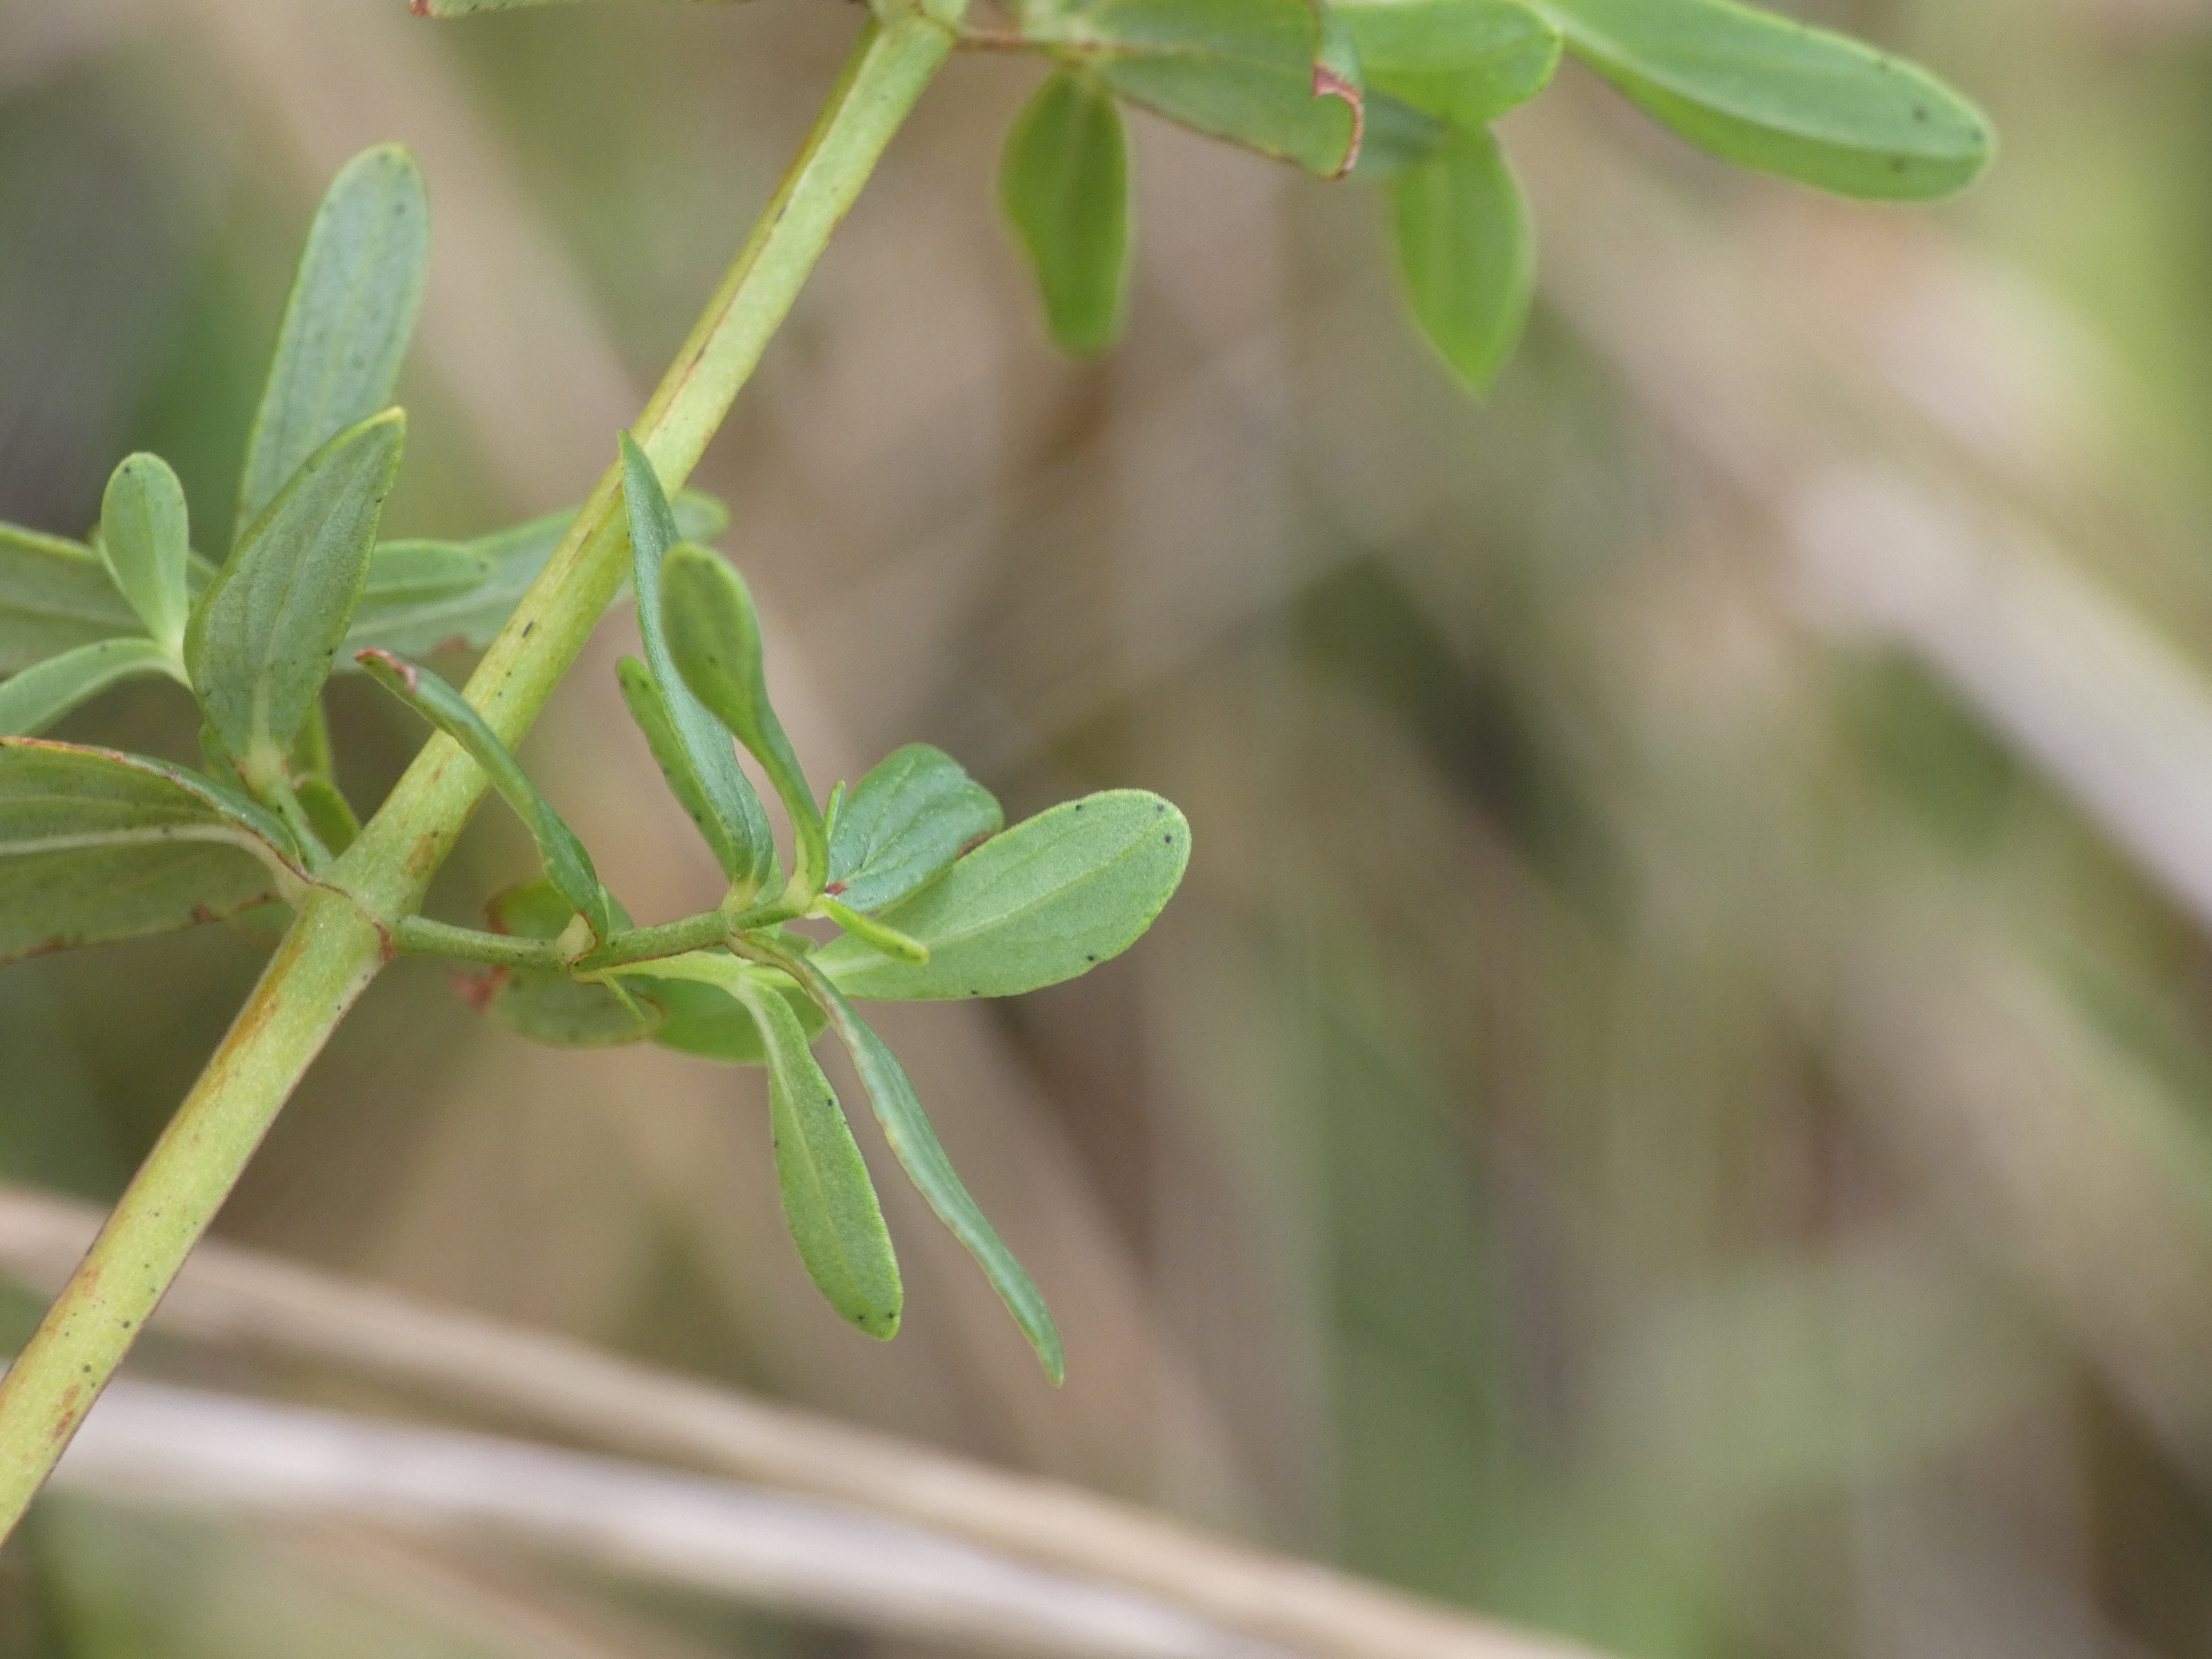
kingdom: Plantae
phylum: Tracheophyta
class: Magnoliopsida
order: Malpighiales
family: Hypericaceae
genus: Hypericum
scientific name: Hypericum perforatum
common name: Prikbladet perikon
